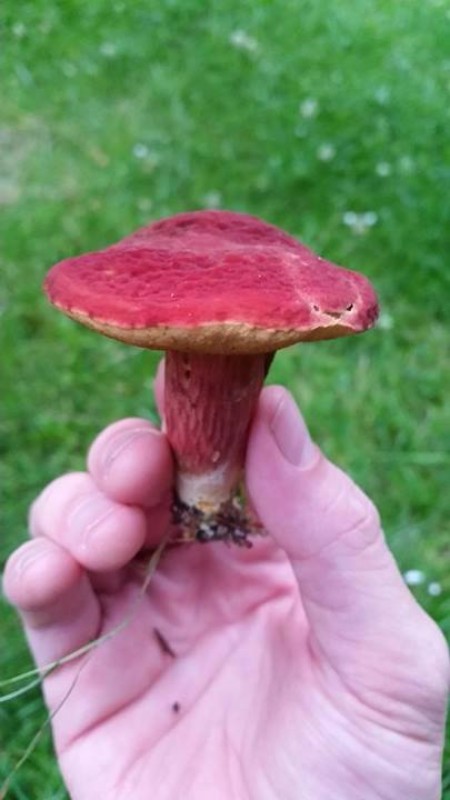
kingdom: Fungi
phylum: Basidiomycota
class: Agaricomycetes
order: Boletales
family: Boletaceae
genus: Hortiboletus
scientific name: Hortiboletus rubellus
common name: blodrød rørhat
